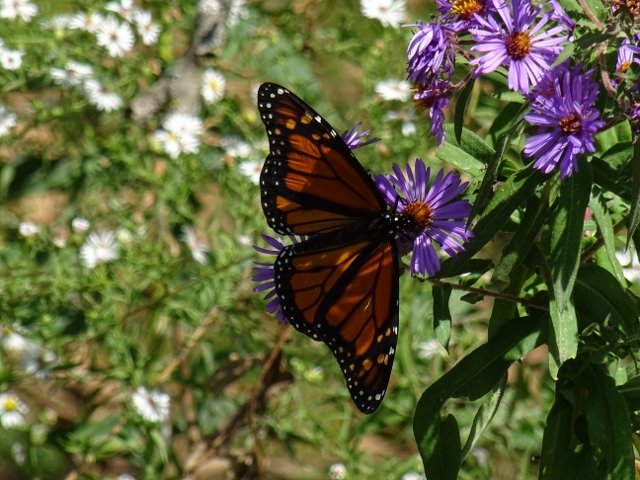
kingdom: Animalia
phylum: Arthropoda
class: Insecta
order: Lepidoptera
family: Nymphalidae
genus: Danaus
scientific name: Danaus plexippus
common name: Monarch
